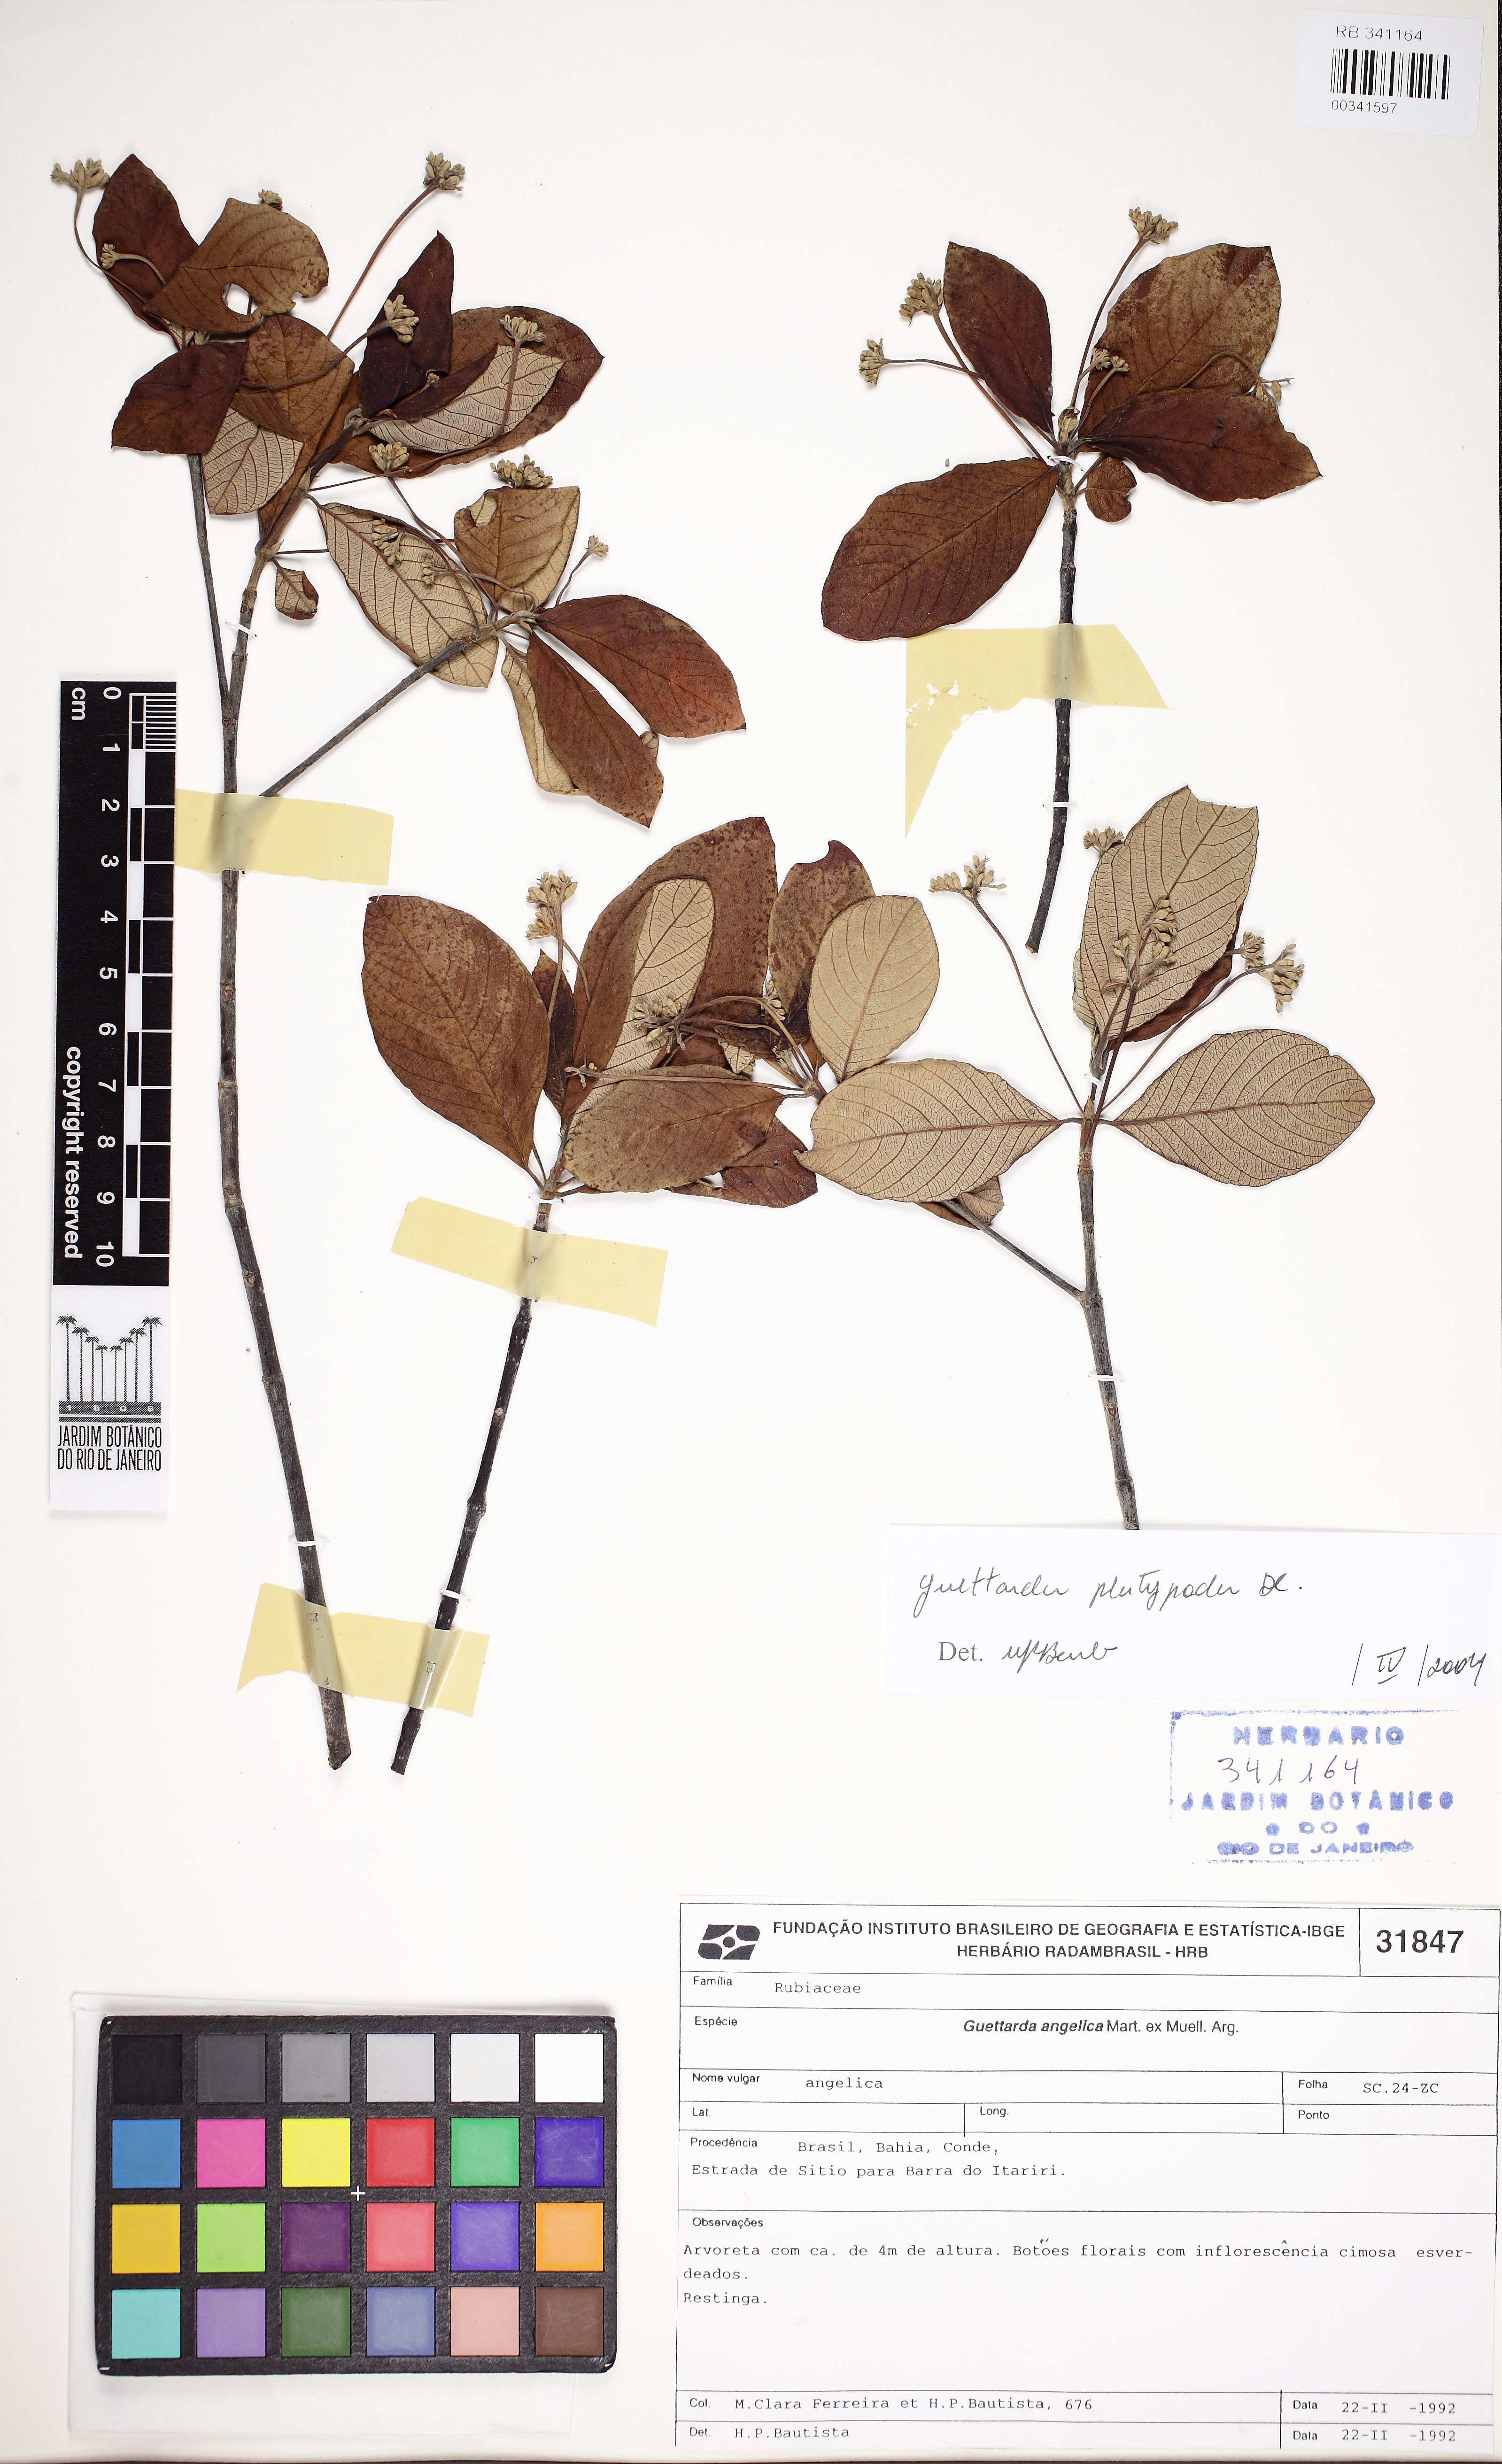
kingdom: Plantae
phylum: Tracheophyta
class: Magnoliopsida
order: Gentianales
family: Rubiaceae
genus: Guettarda
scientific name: Guettarda platypoda
